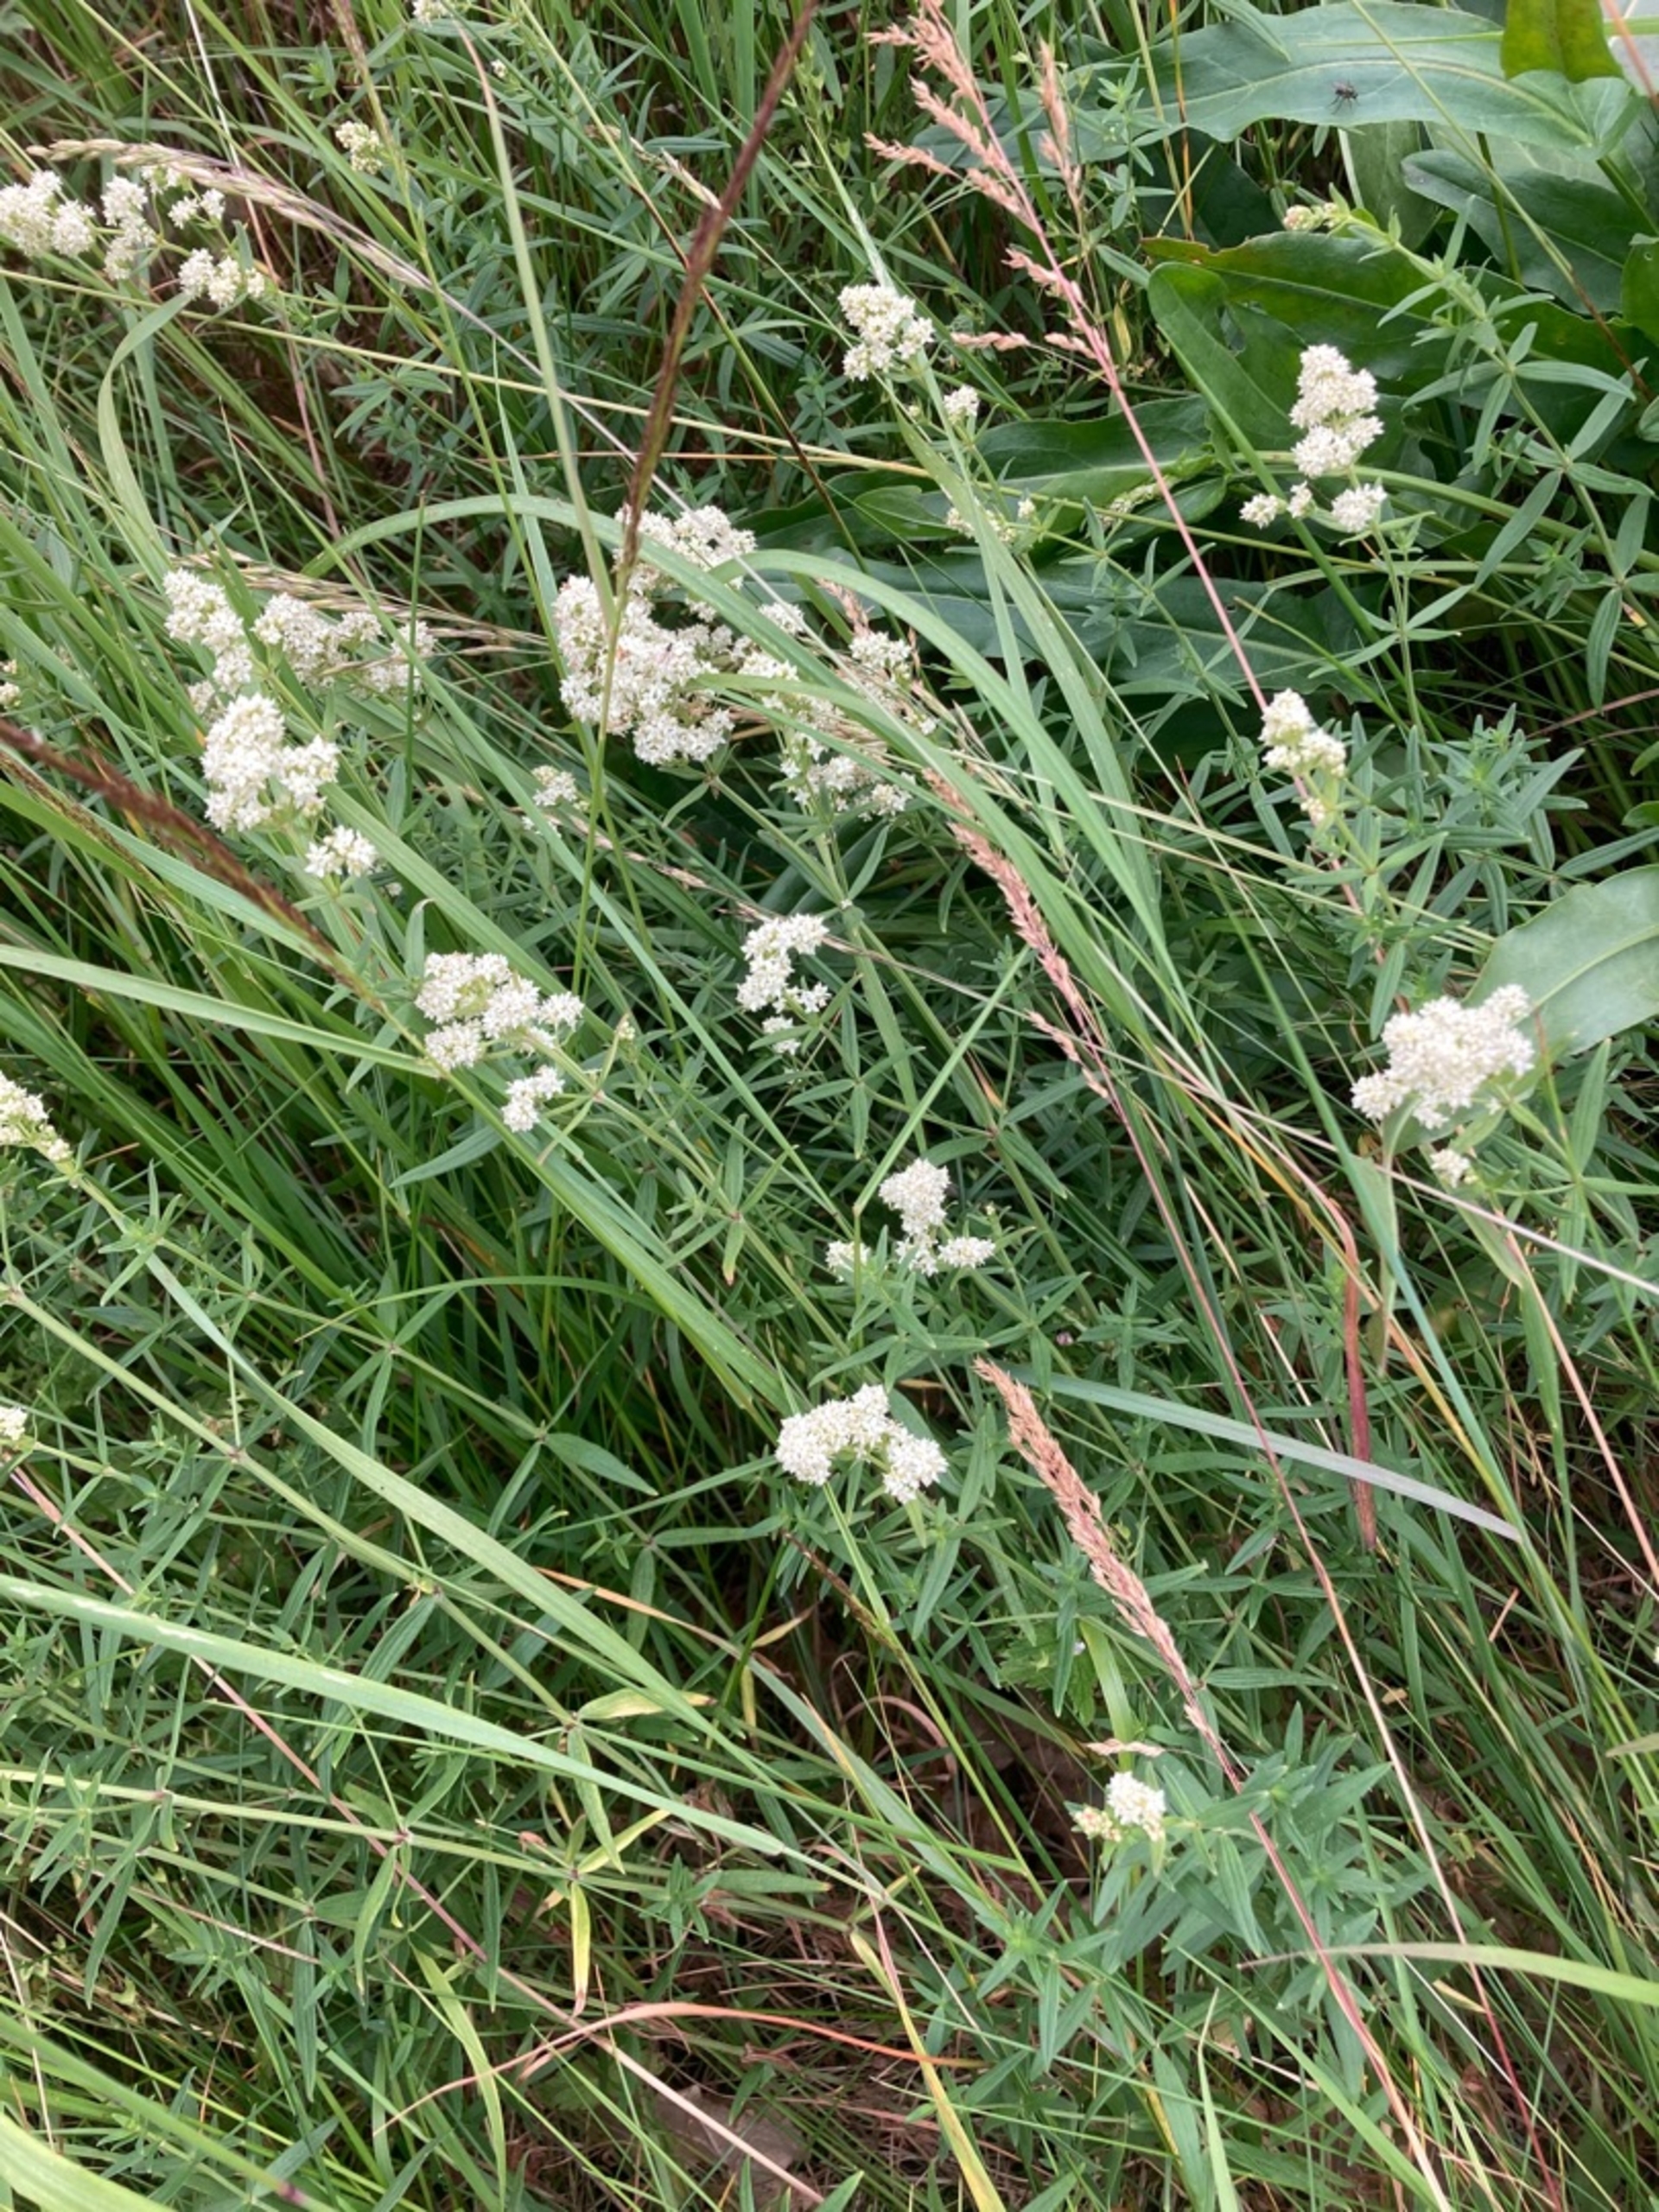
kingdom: Plantae
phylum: Tracheophyta
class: Magnoliopsida
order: Gentianales
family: Rubiaceae
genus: Galium
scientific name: Galium boreale
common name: Trenervet snerre
